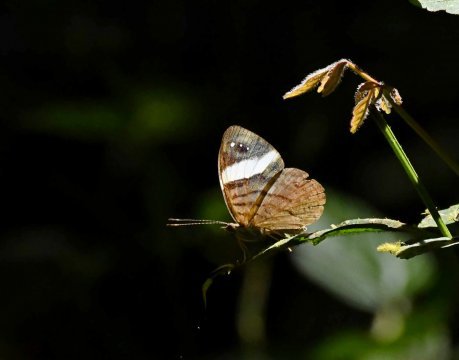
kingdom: Animalia
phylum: Arthropoda
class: Insecta
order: Lepidoptera
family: Nymphalidae
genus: Ectima
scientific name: Ectima erycinoides
